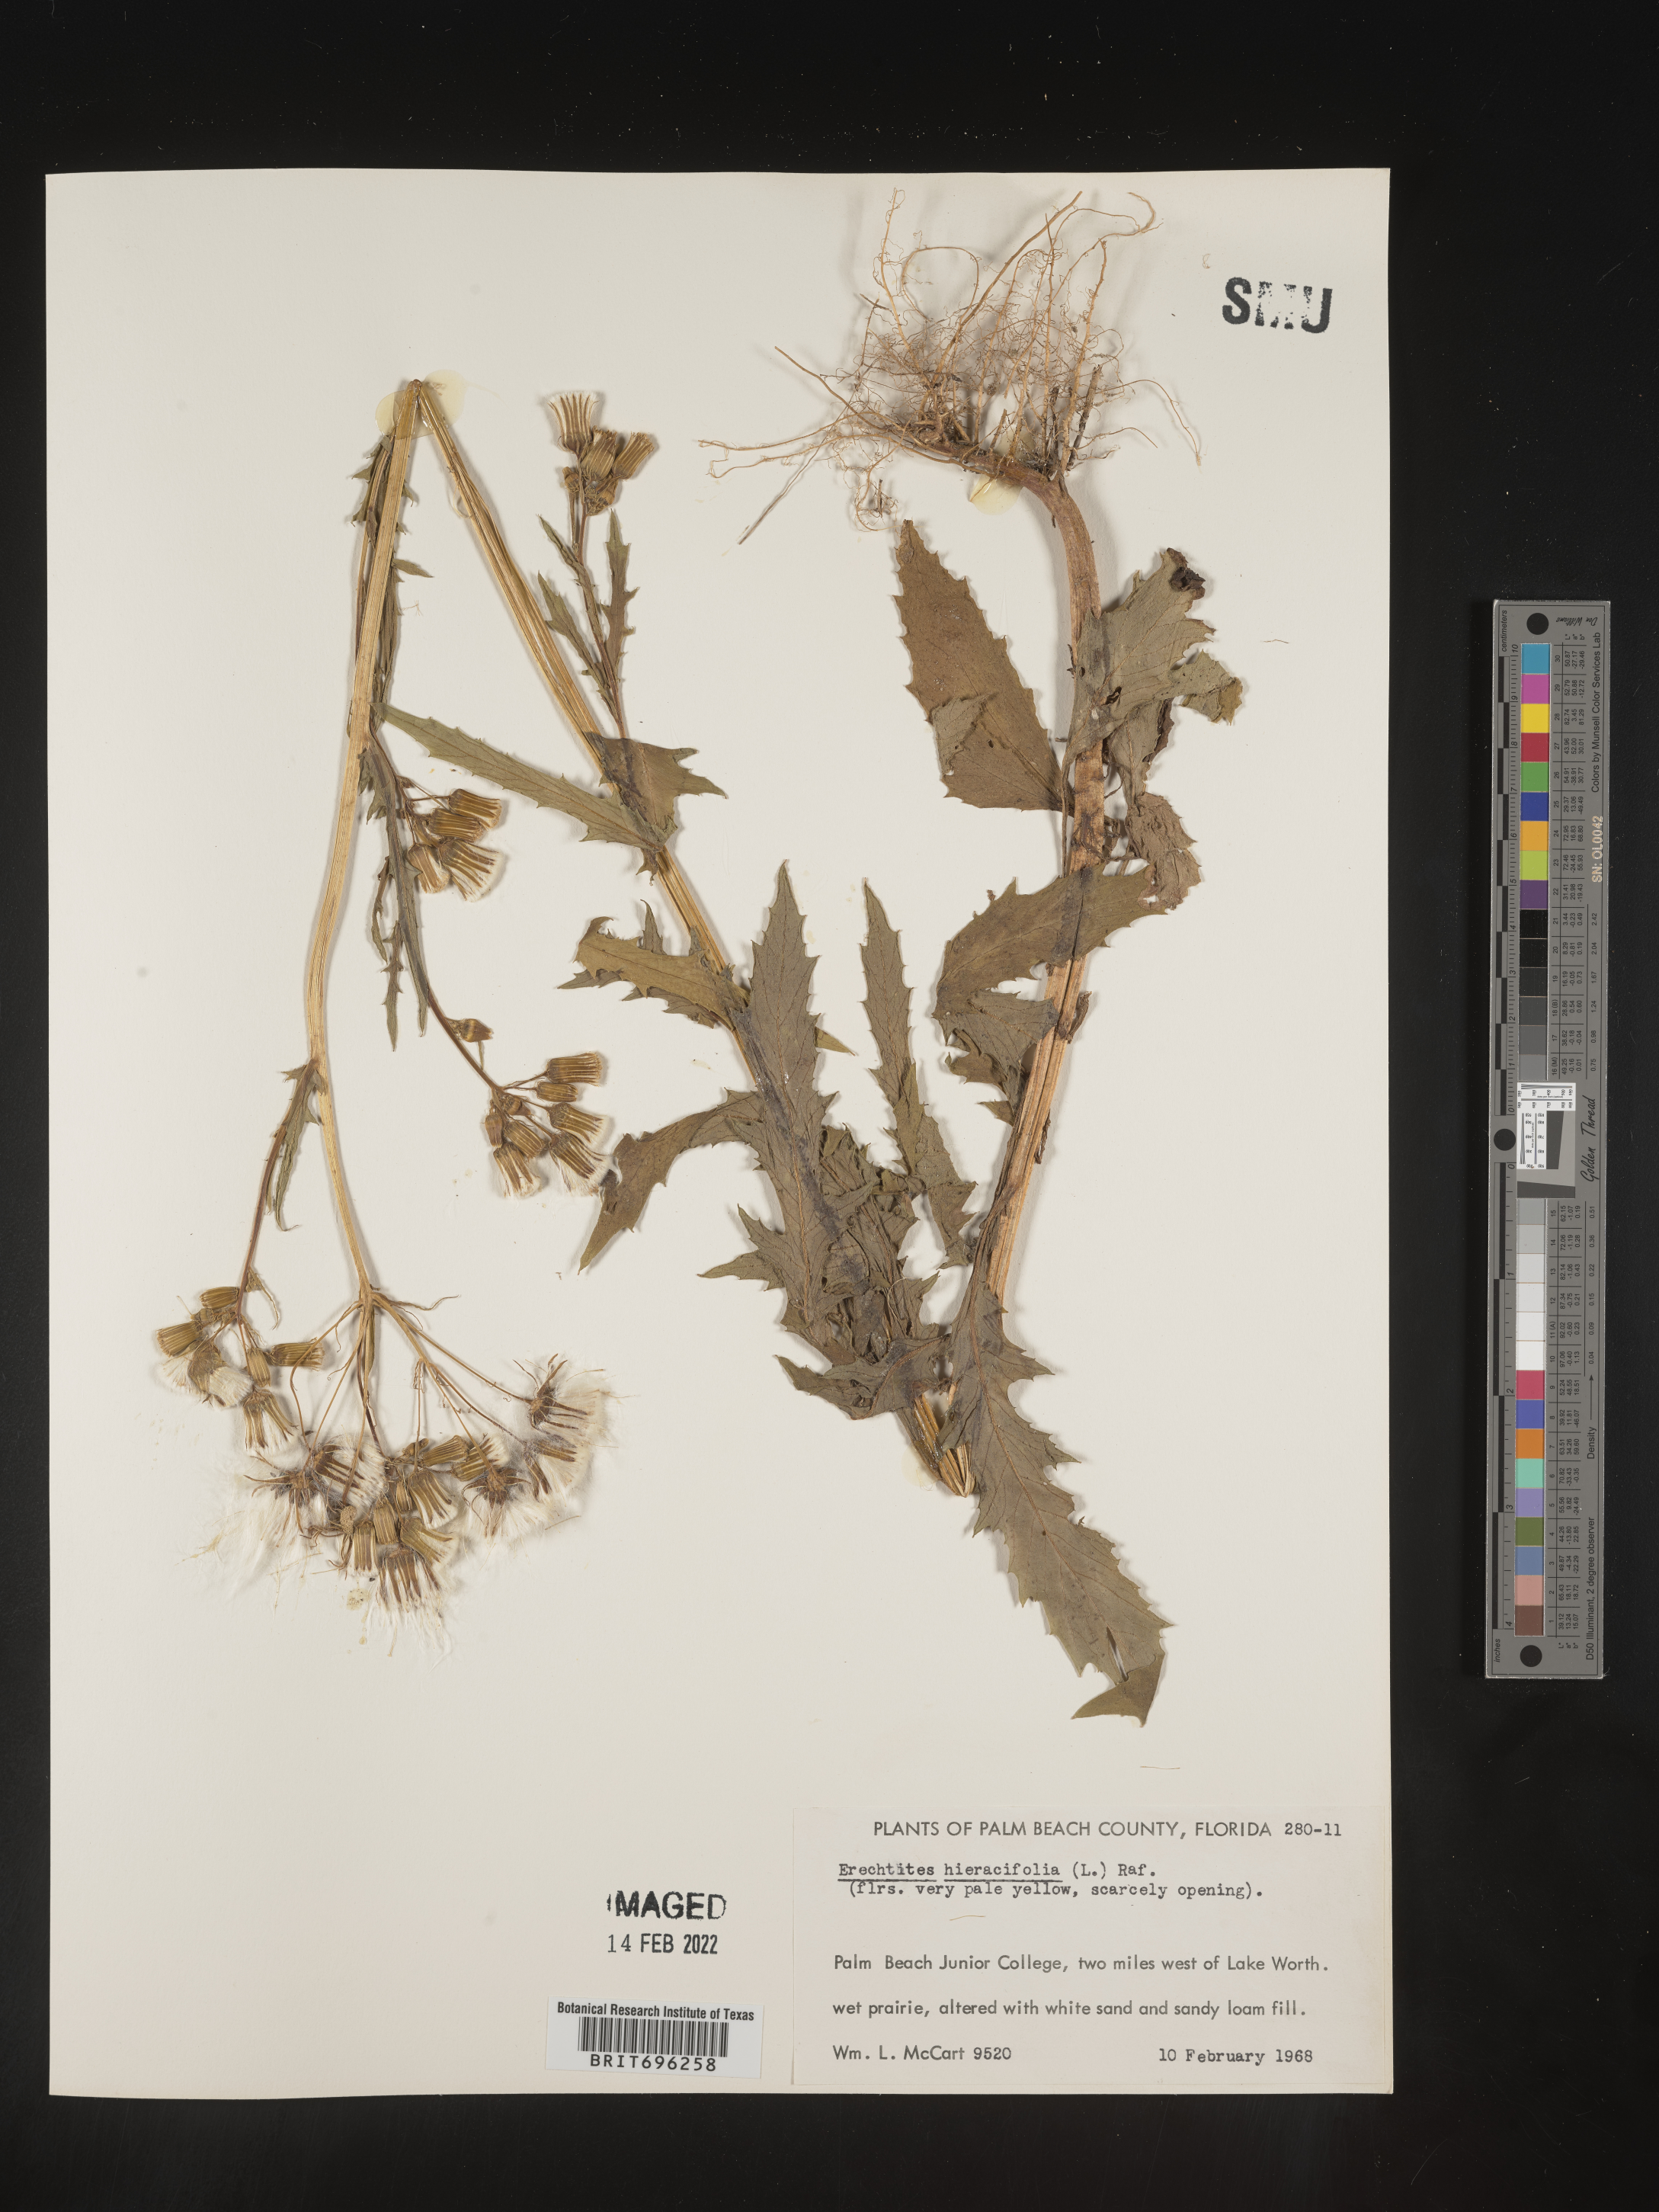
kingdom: Plantae
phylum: Tracheophyta
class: Magnoliopsida
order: Asterales
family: Asteraceae
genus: Erechtites
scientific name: Erechtites hieraciifolius
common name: American burnweed
